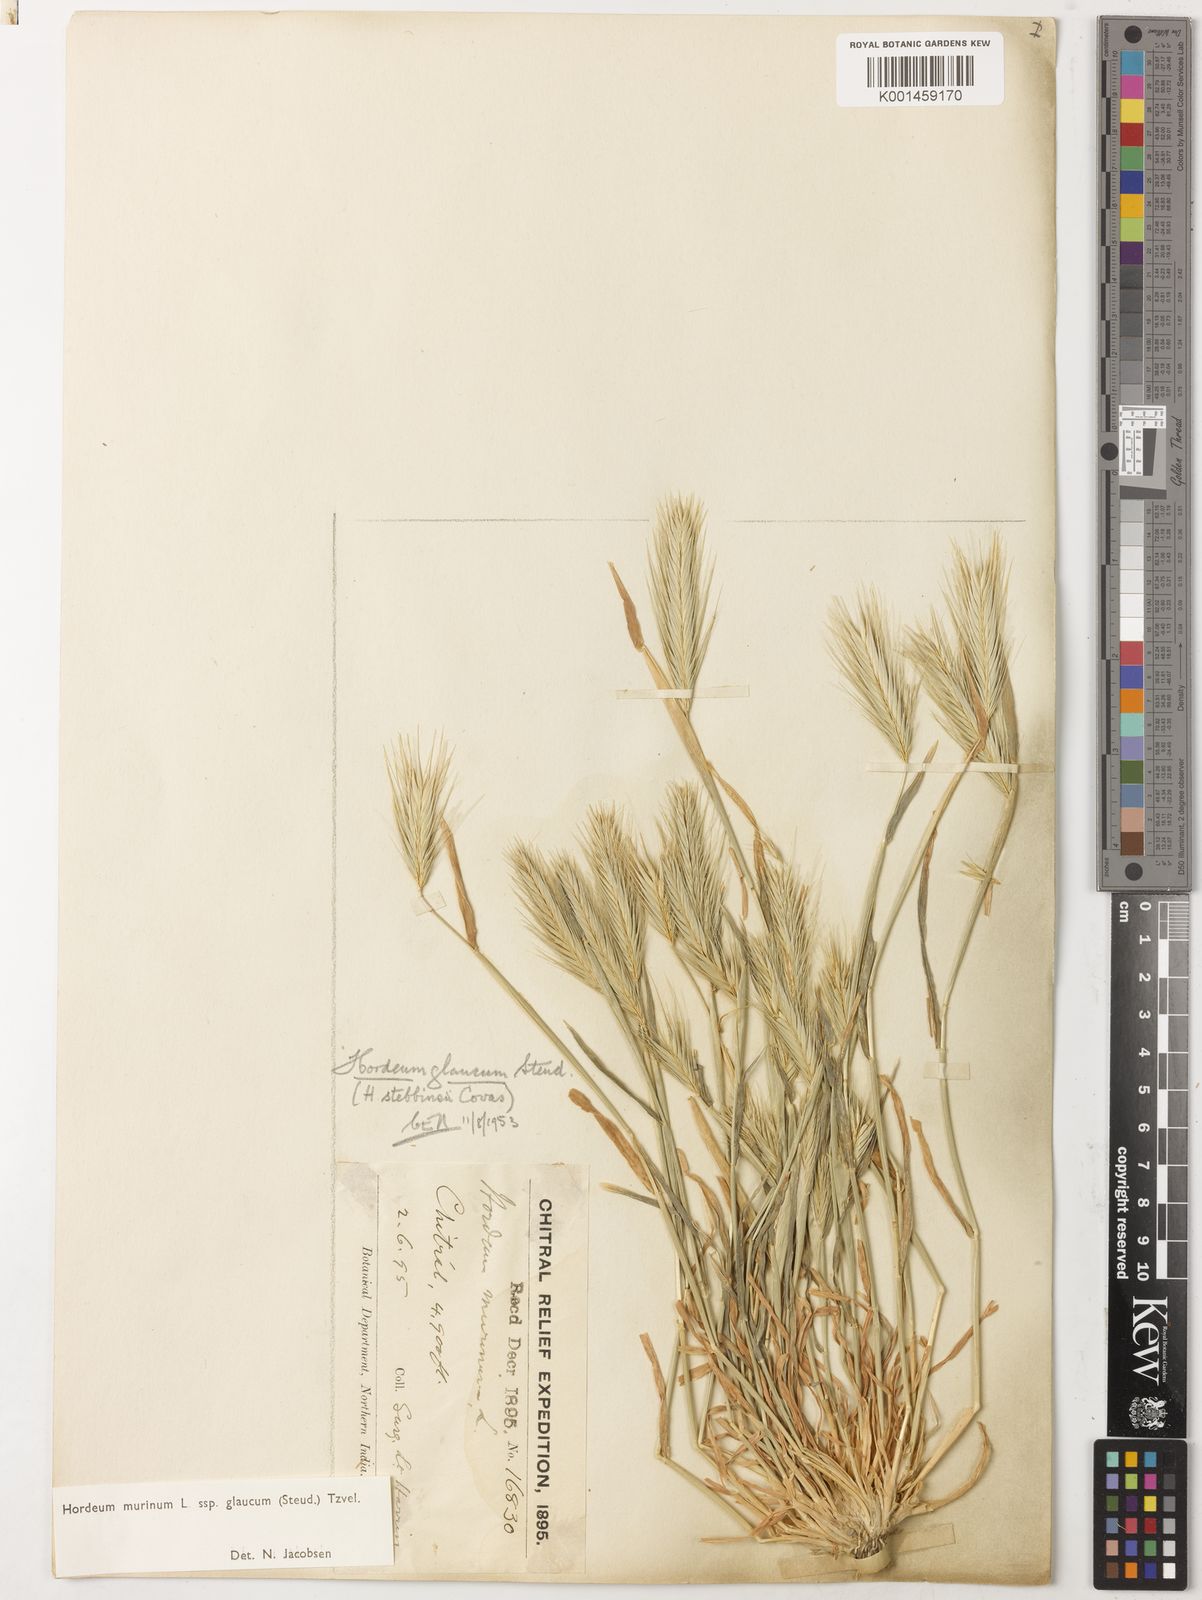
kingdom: Plantae
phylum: Tracheophyta
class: Liliopsida
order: Poales
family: Poaceae
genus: Hordeum
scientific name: Hordeum murinum
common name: Wall barley
